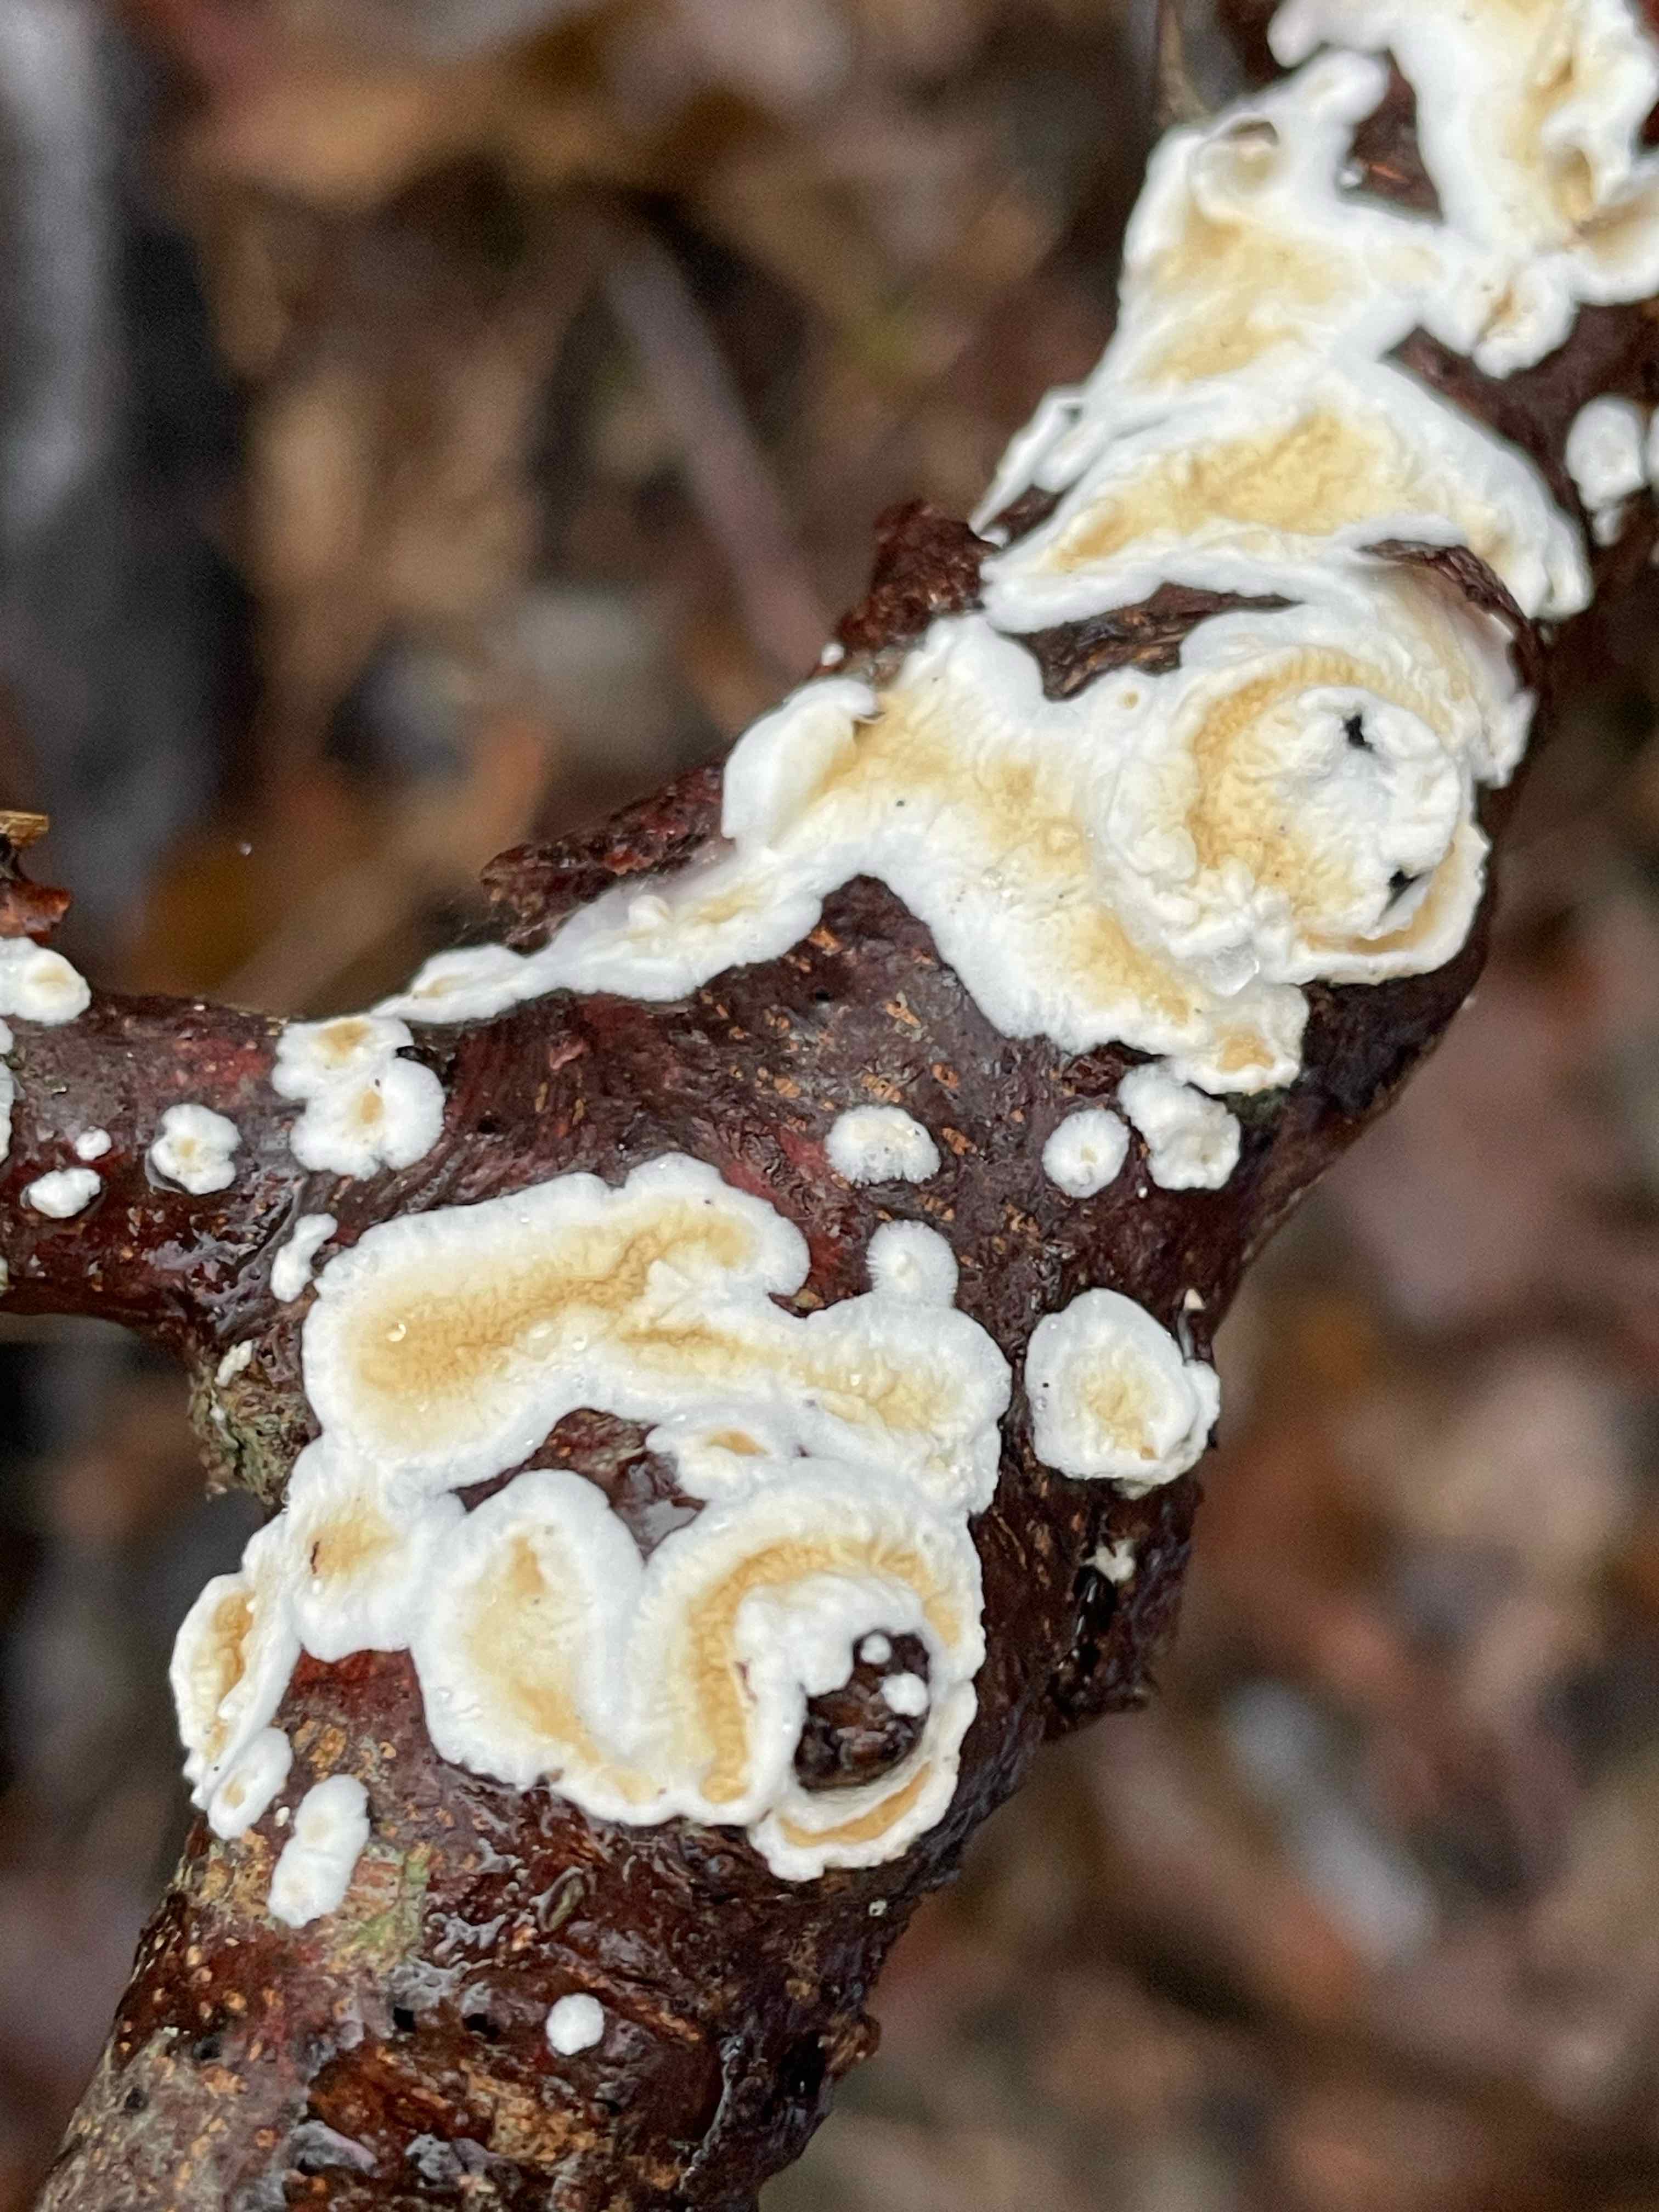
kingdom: Fungi
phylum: Basidiomycota
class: Agaricomycetes
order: Polyporales
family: Irpicaceae
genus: Byssomerulius
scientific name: Byssomerulius corium
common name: læder-åresvamp
